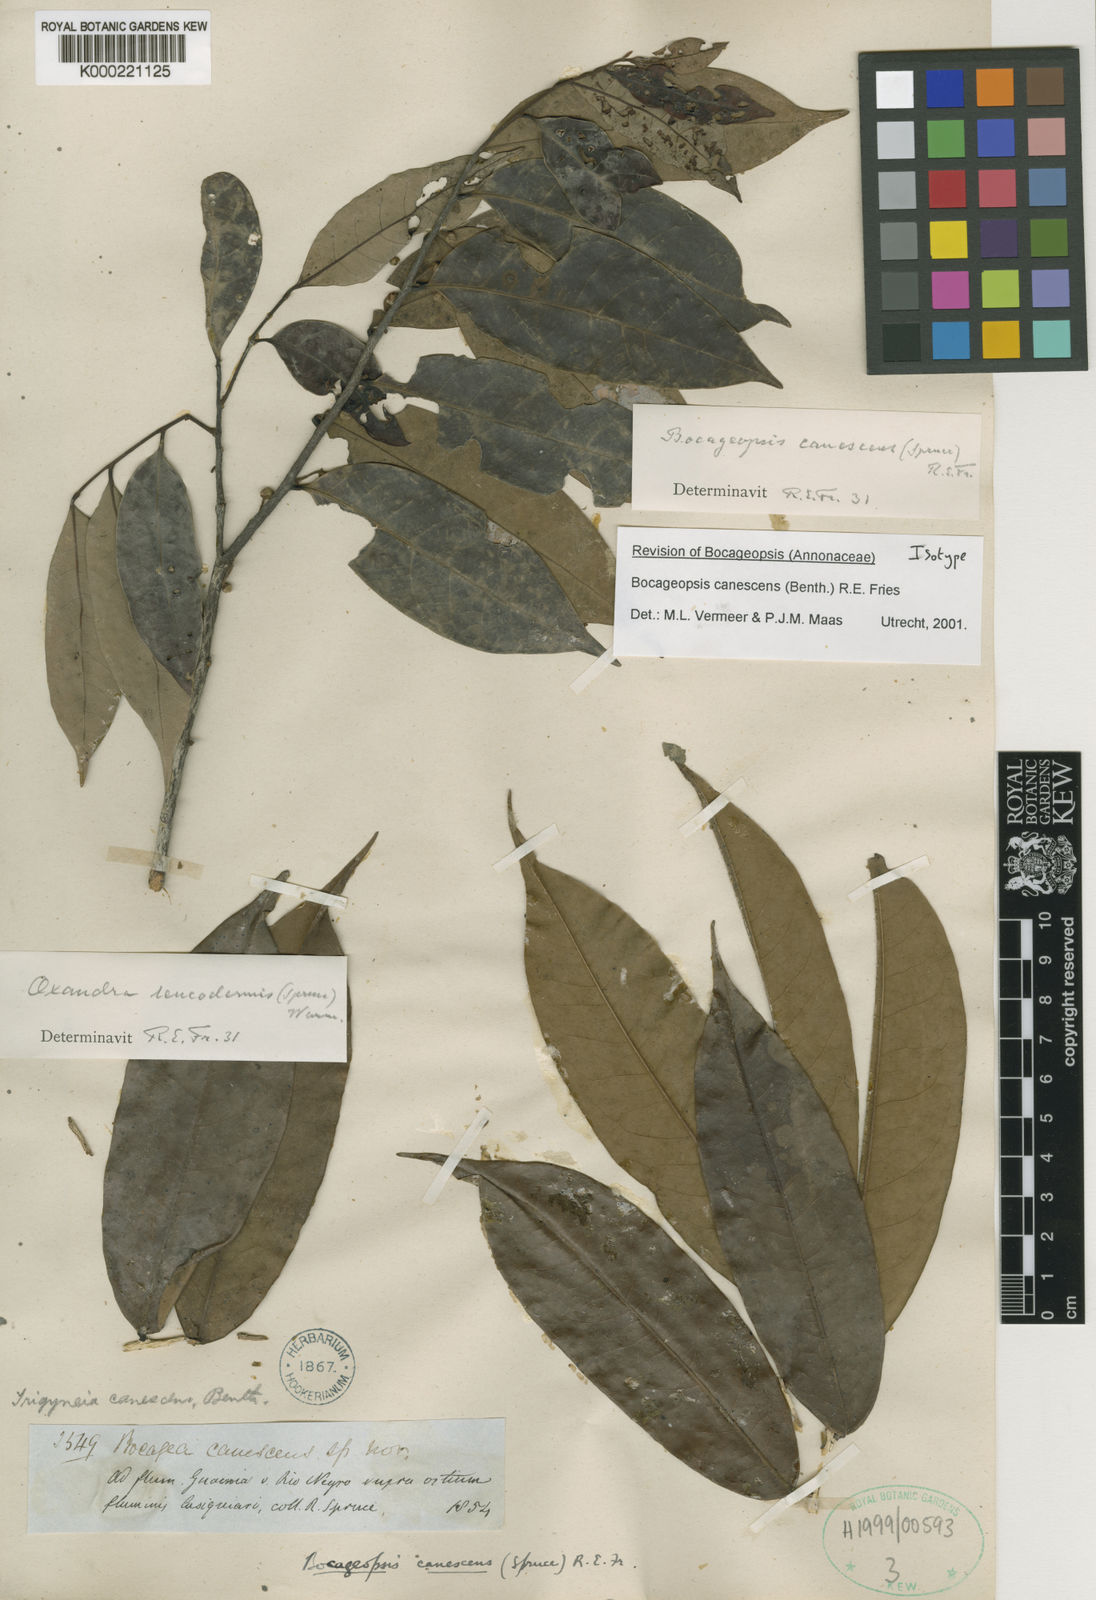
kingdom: Plantae
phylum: Tracheophyta
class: Magnoliopsida
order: Magnoliales
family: Annonaceae
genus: Oxandra
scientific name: Oxandra leucodermis
